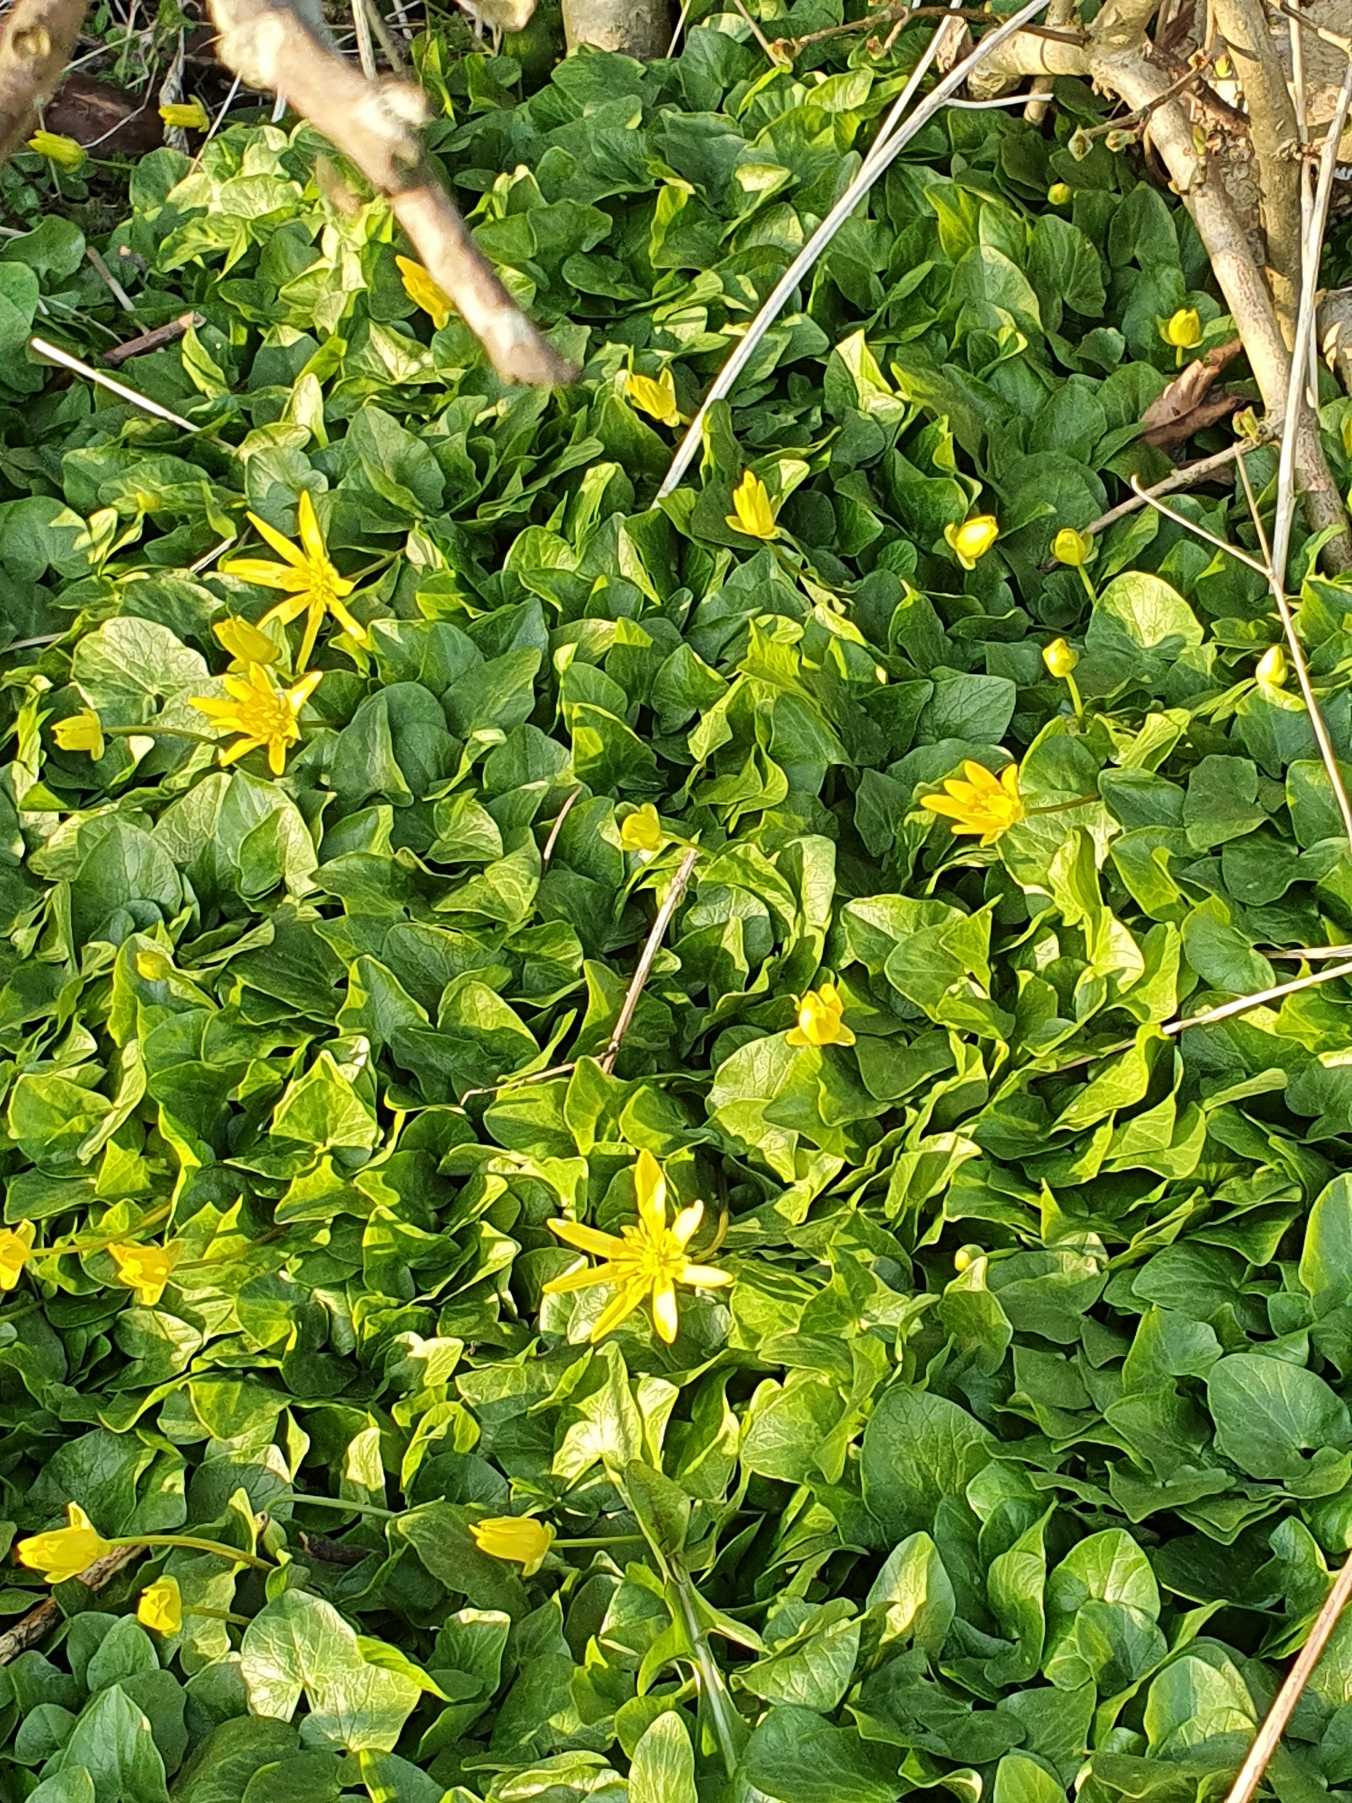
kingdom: Plantae
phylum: Tracheophyta
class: Magnoliopsida
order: Ranunculales
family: Ranunculaceae
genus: Ficaria
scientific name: Ficaria verna
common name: Vorterod
